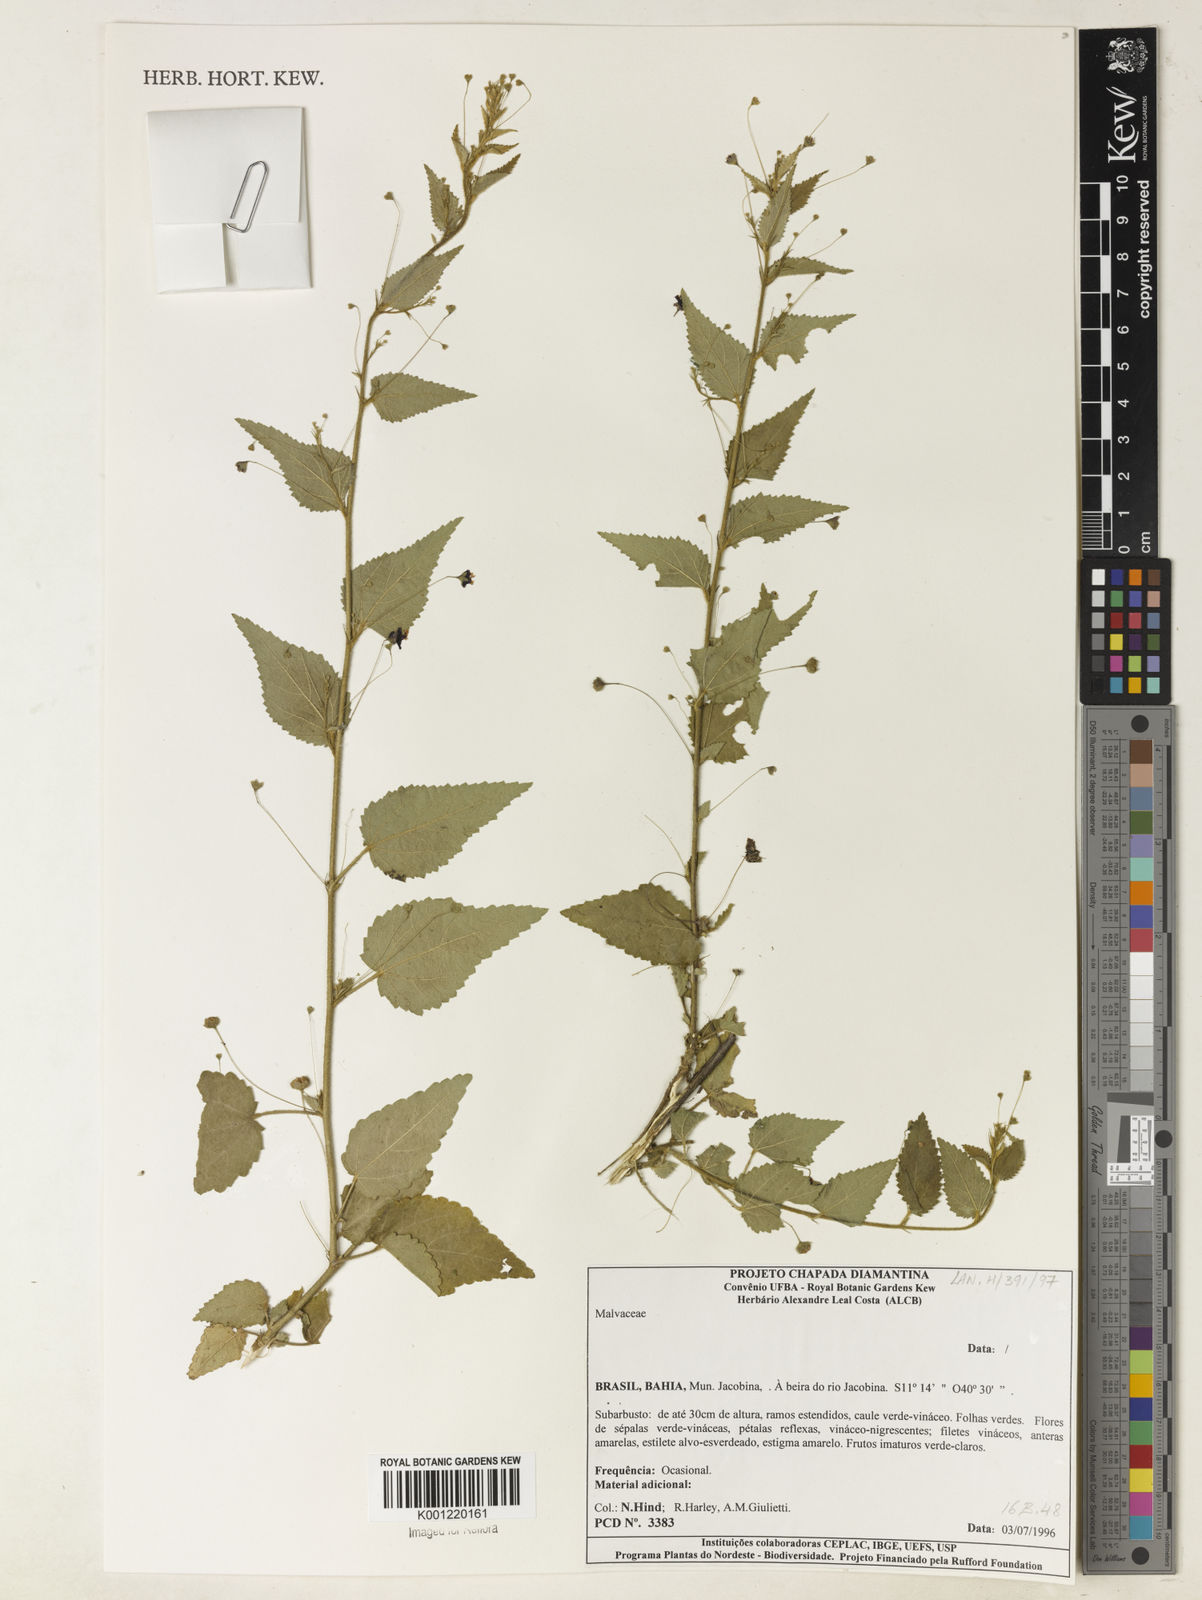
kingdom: Plantae
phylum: Tracheophyta
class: Magnoliopsida
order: Malvales
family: Malvaceae
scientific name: Malvaceae
